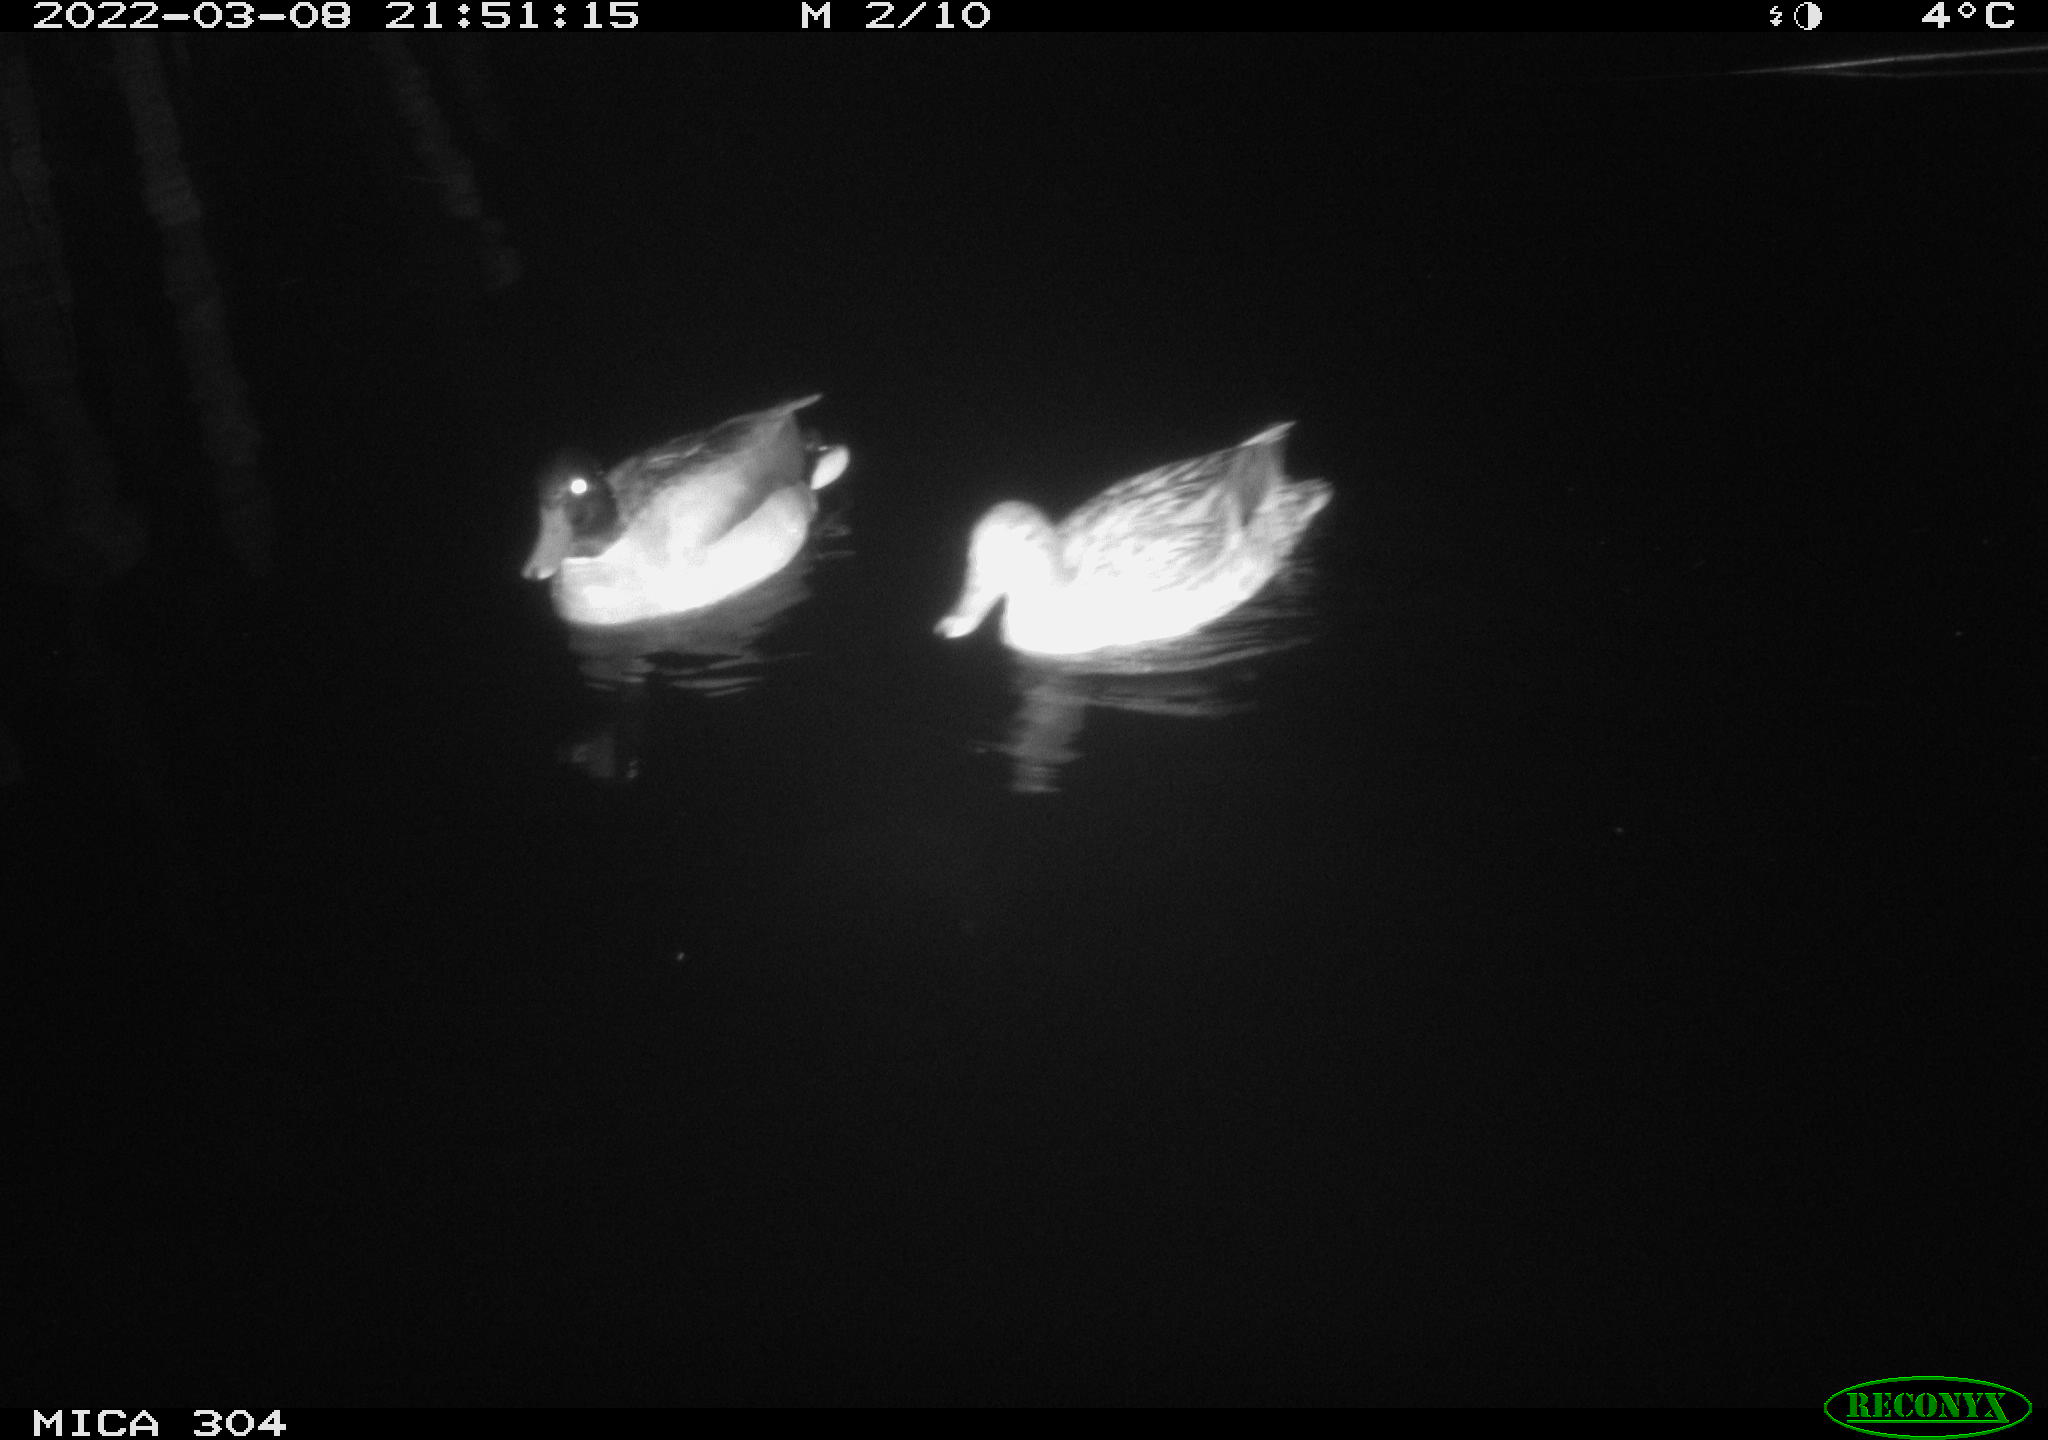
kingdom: Animalia
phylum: Chordata
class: Aves
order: Anseriformes
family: Anatidae
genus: Anas
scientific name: Anas platyrhynchos
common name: Mallard
